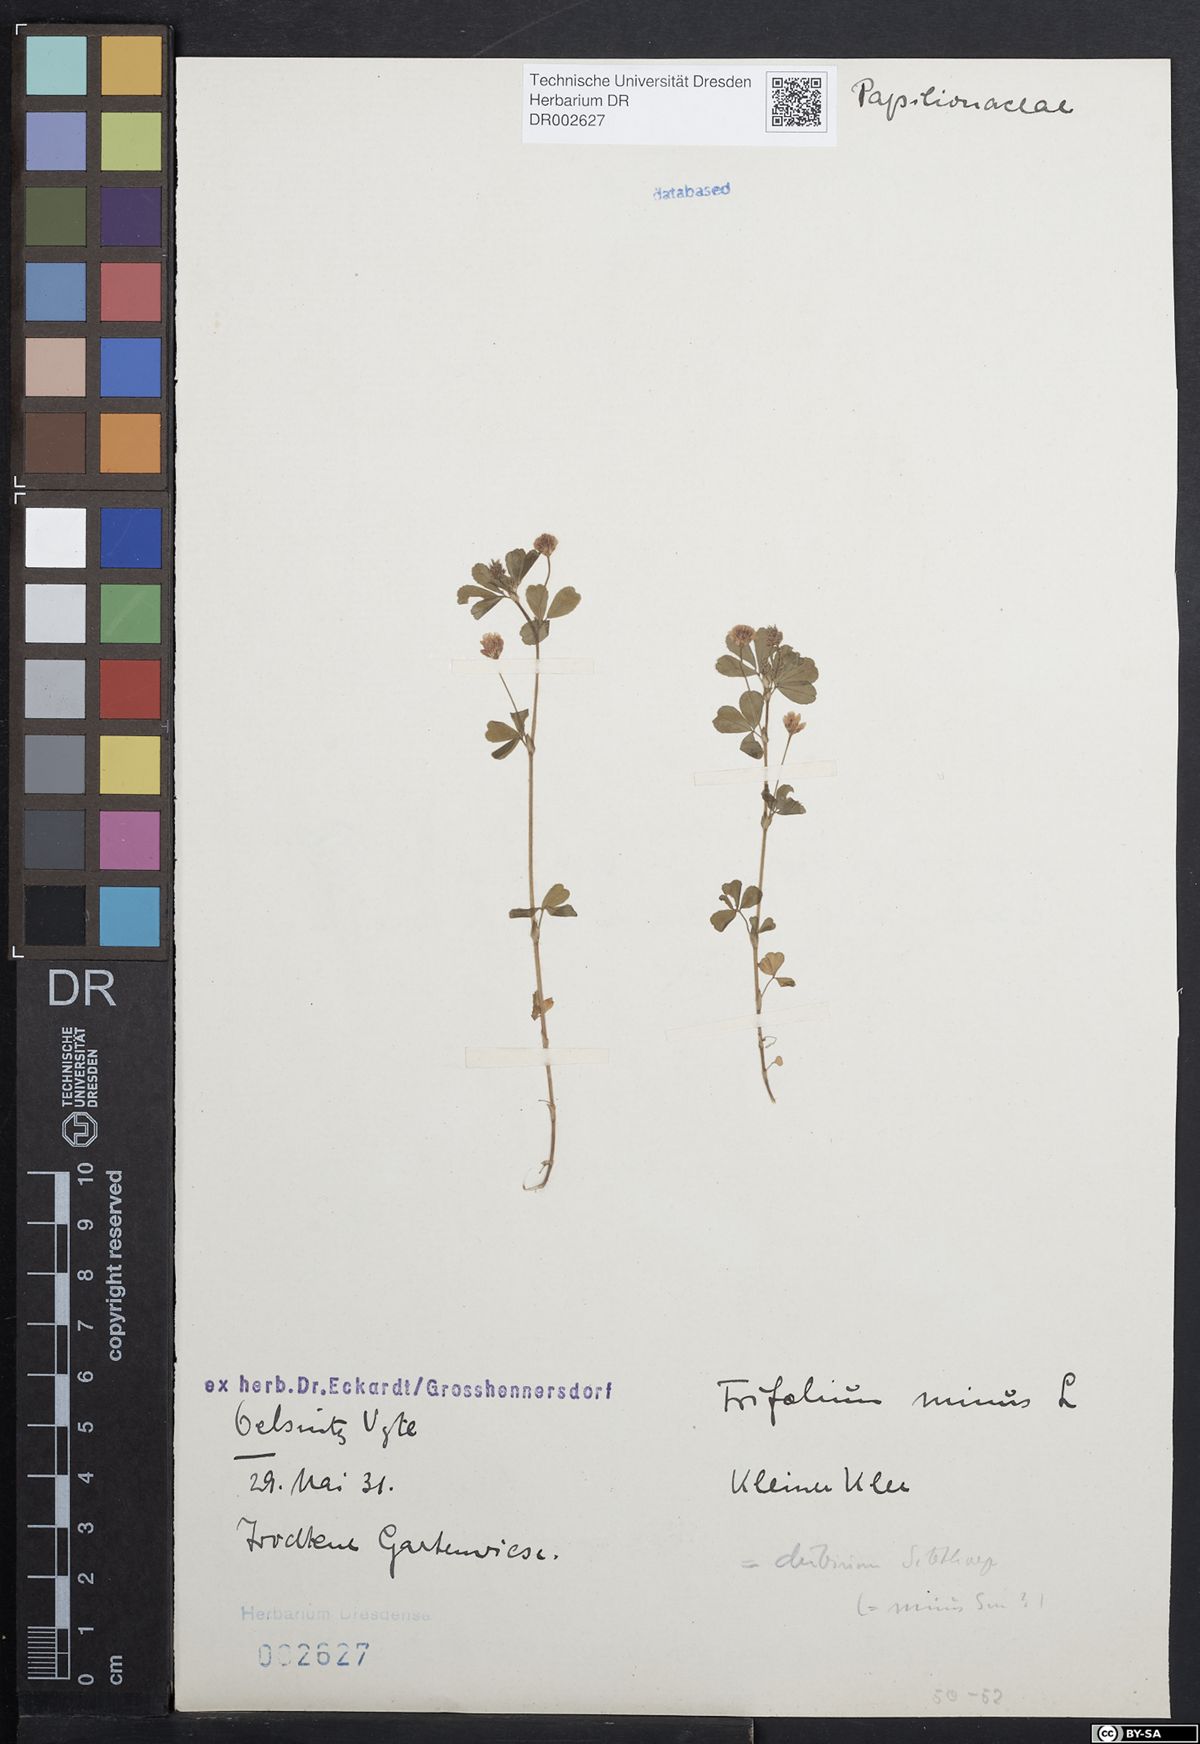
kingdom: Plantae
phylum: Tracheophyta
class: Magnoliopsida
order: Fabales
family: Fabaceae
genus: Trifolium
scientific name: Trifolium dubium
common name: Suckling clover
